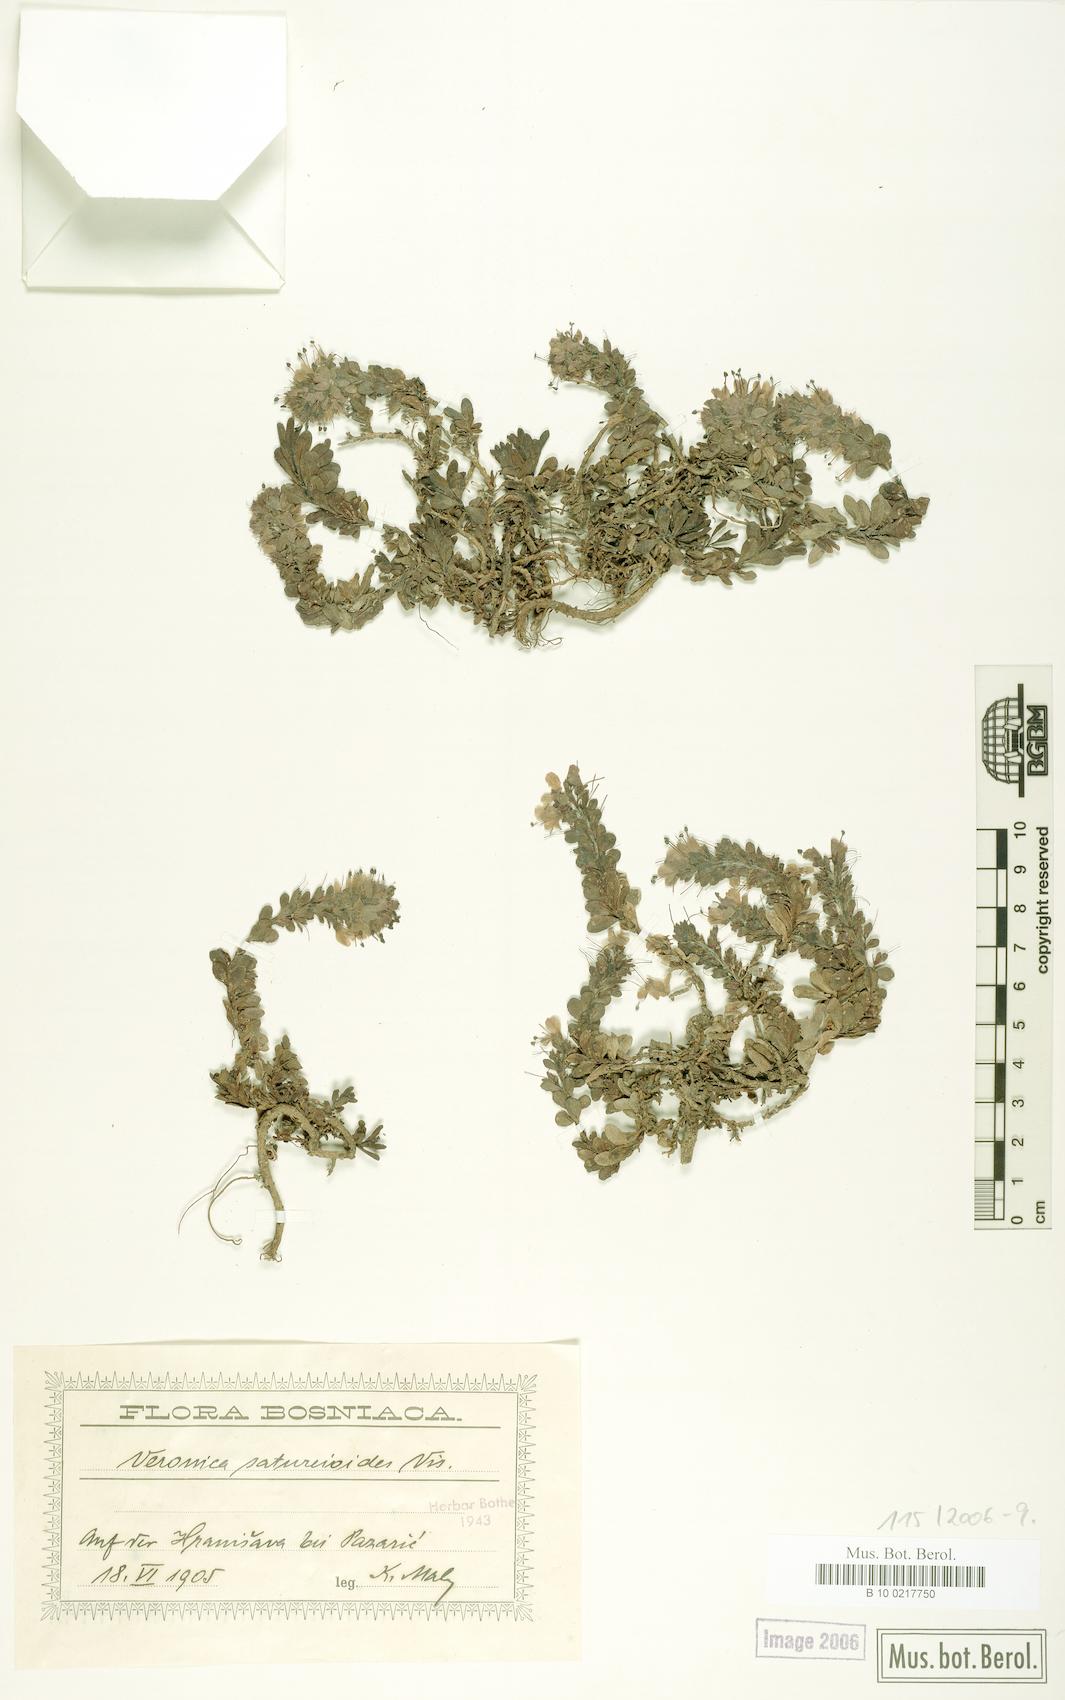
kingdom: Plantae
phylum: Tracheophyta
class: Magnoliopsida
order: Lamiales
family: Plantaginaceae
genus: Veronica
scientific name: Veronica saturejoides
